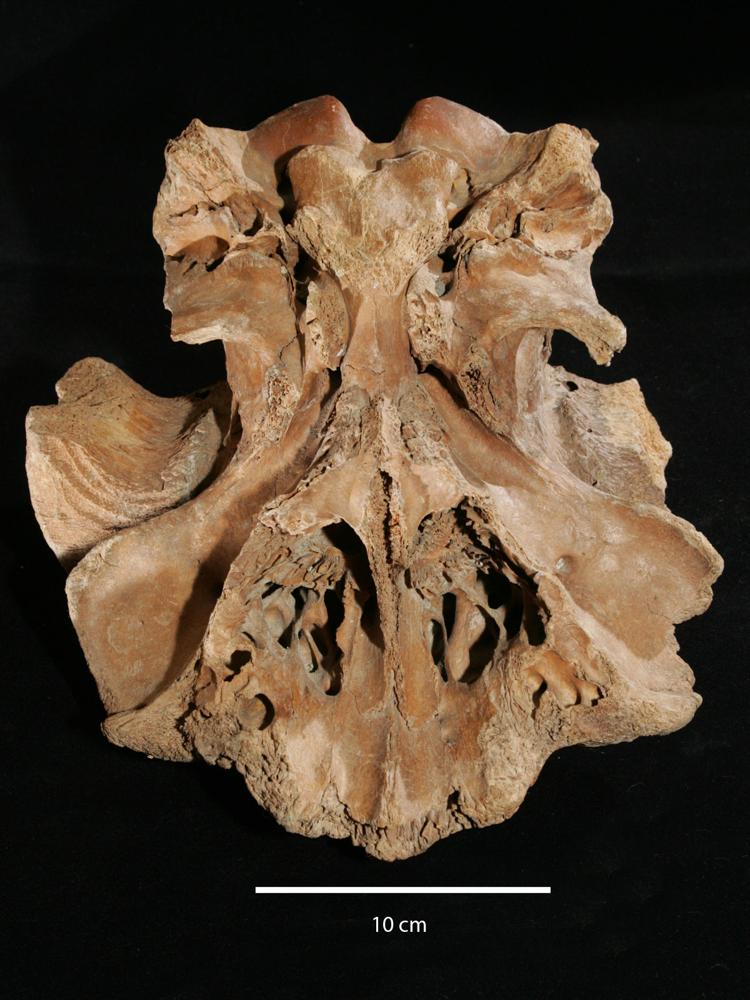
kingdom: Animalia
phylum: Chordata
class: Mammalia
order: Artiodactyla
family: Bovidae
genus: Ovibos
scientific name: Ovibos moschatus
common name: Muskox
